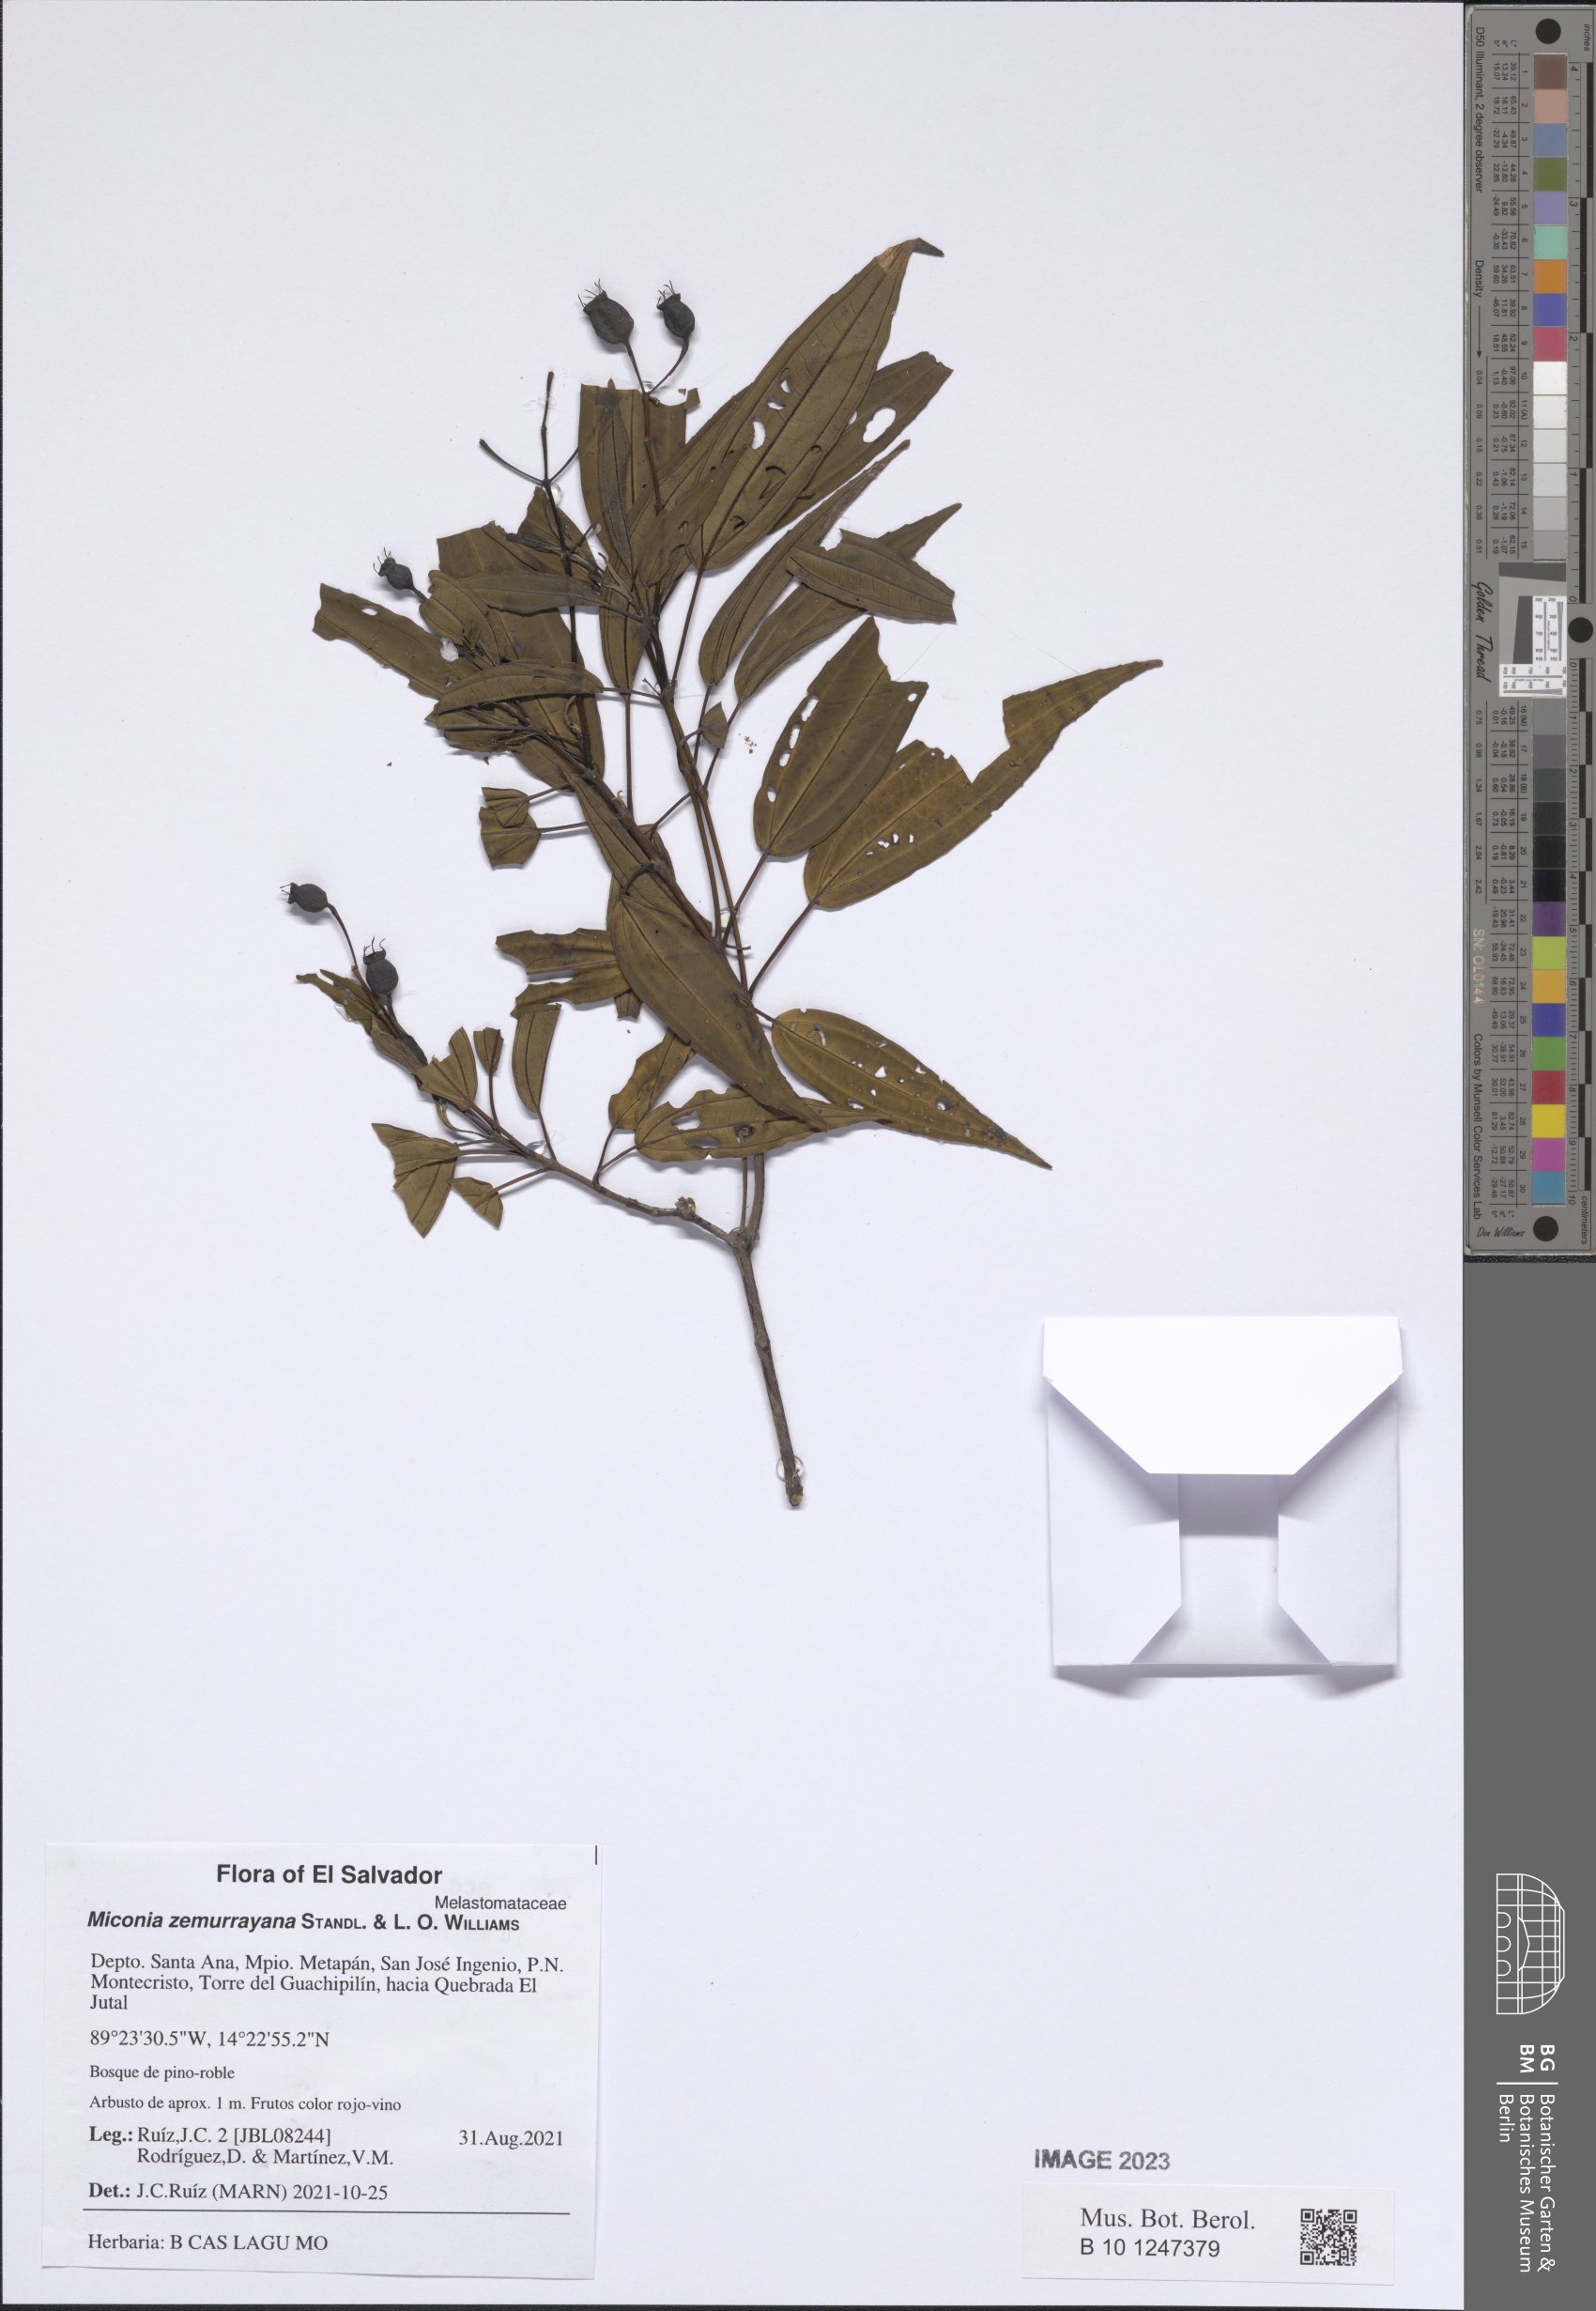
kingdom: Plantae
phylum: Tracheophyta
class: Magnoliopsida
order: Myrtales
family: Melastomataceae
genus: Miconia
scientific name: Miconia zemurrayana
